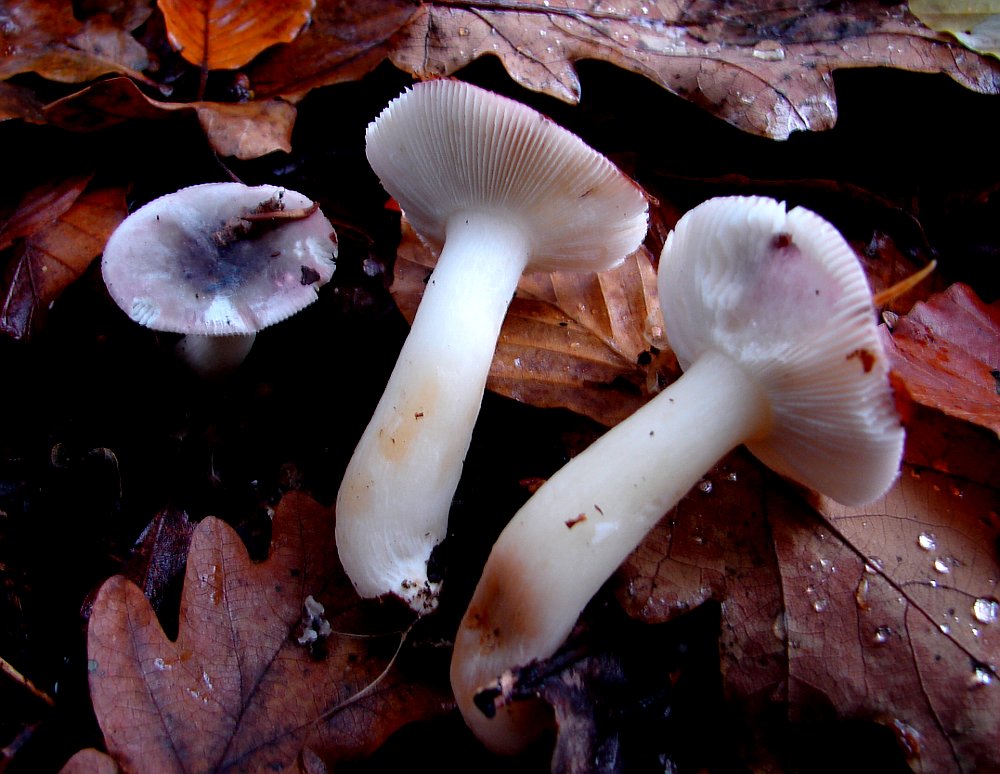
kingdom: Fungi
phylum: Basidiomycota
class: Agaricomycetes
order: Russulales
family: Russulaceae
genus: Russula
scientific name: Russula fragilis
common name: savbladet skørhat
